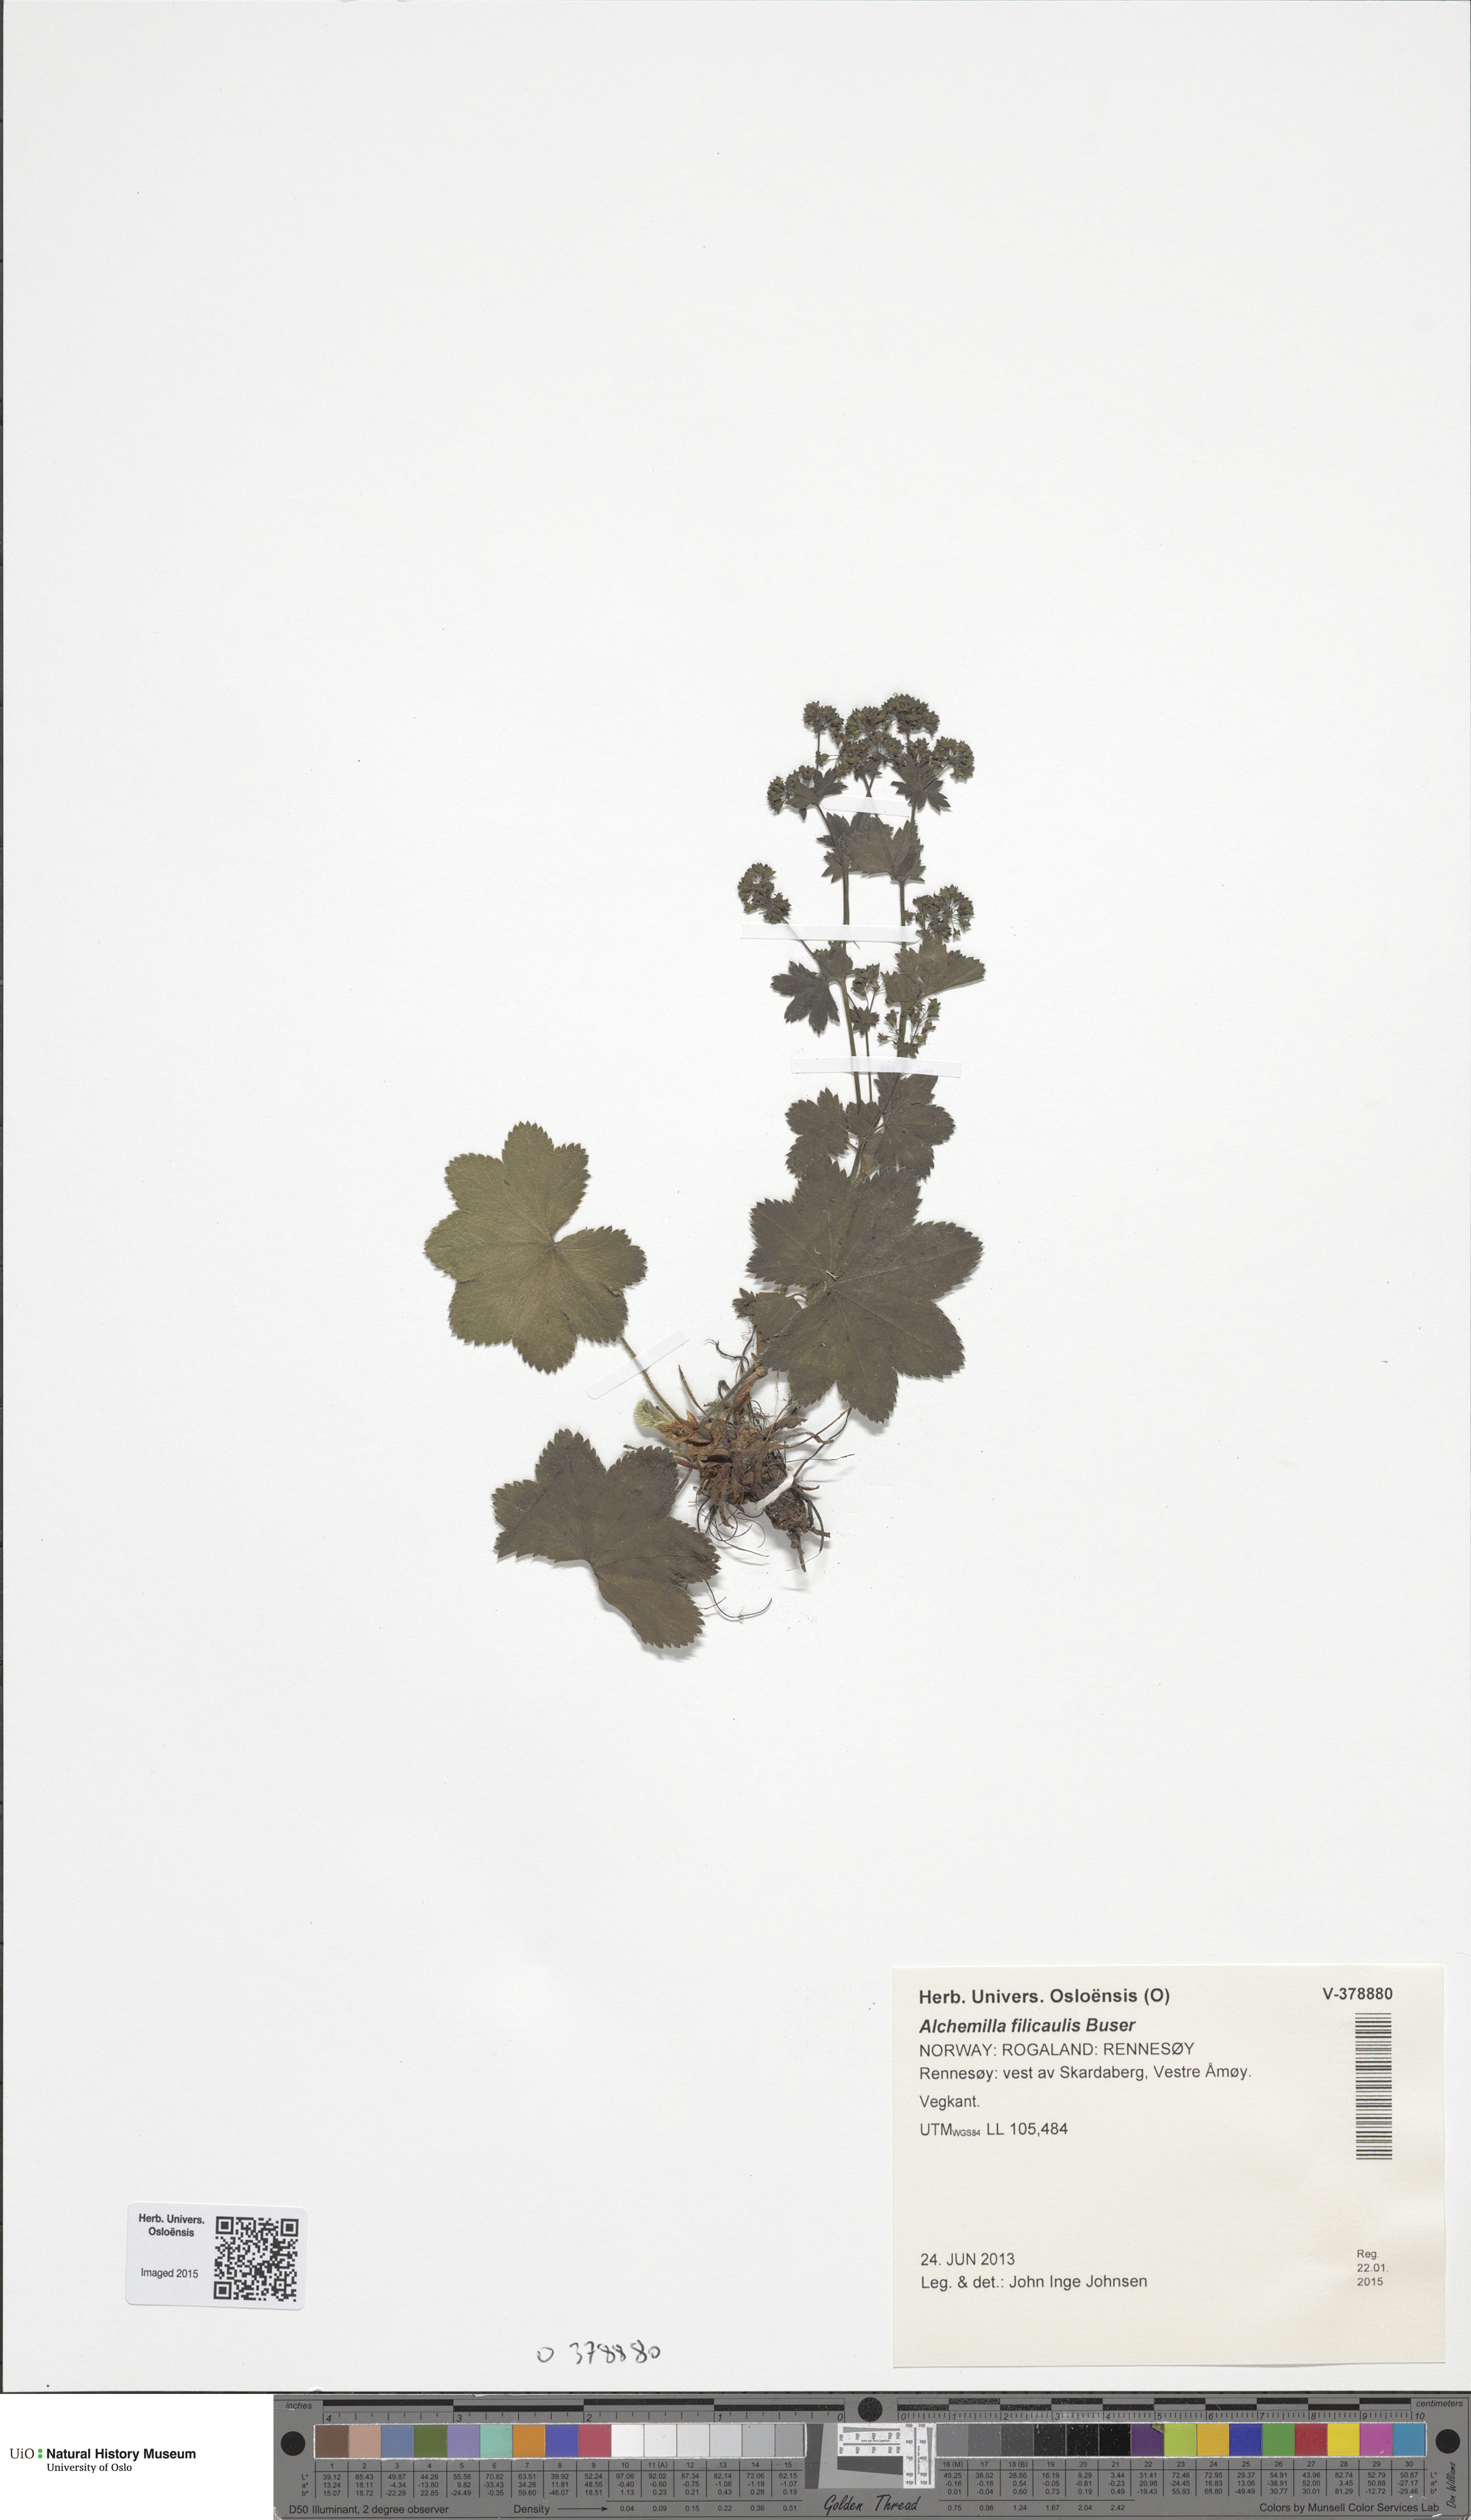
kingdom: Plantae
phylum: Tracheophyta
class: Magnoliopsida
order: Rosales
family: Rosaceae
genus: Alchemilla
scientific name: Alchemilla filicaulis
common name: Hairy lady's-mantle
